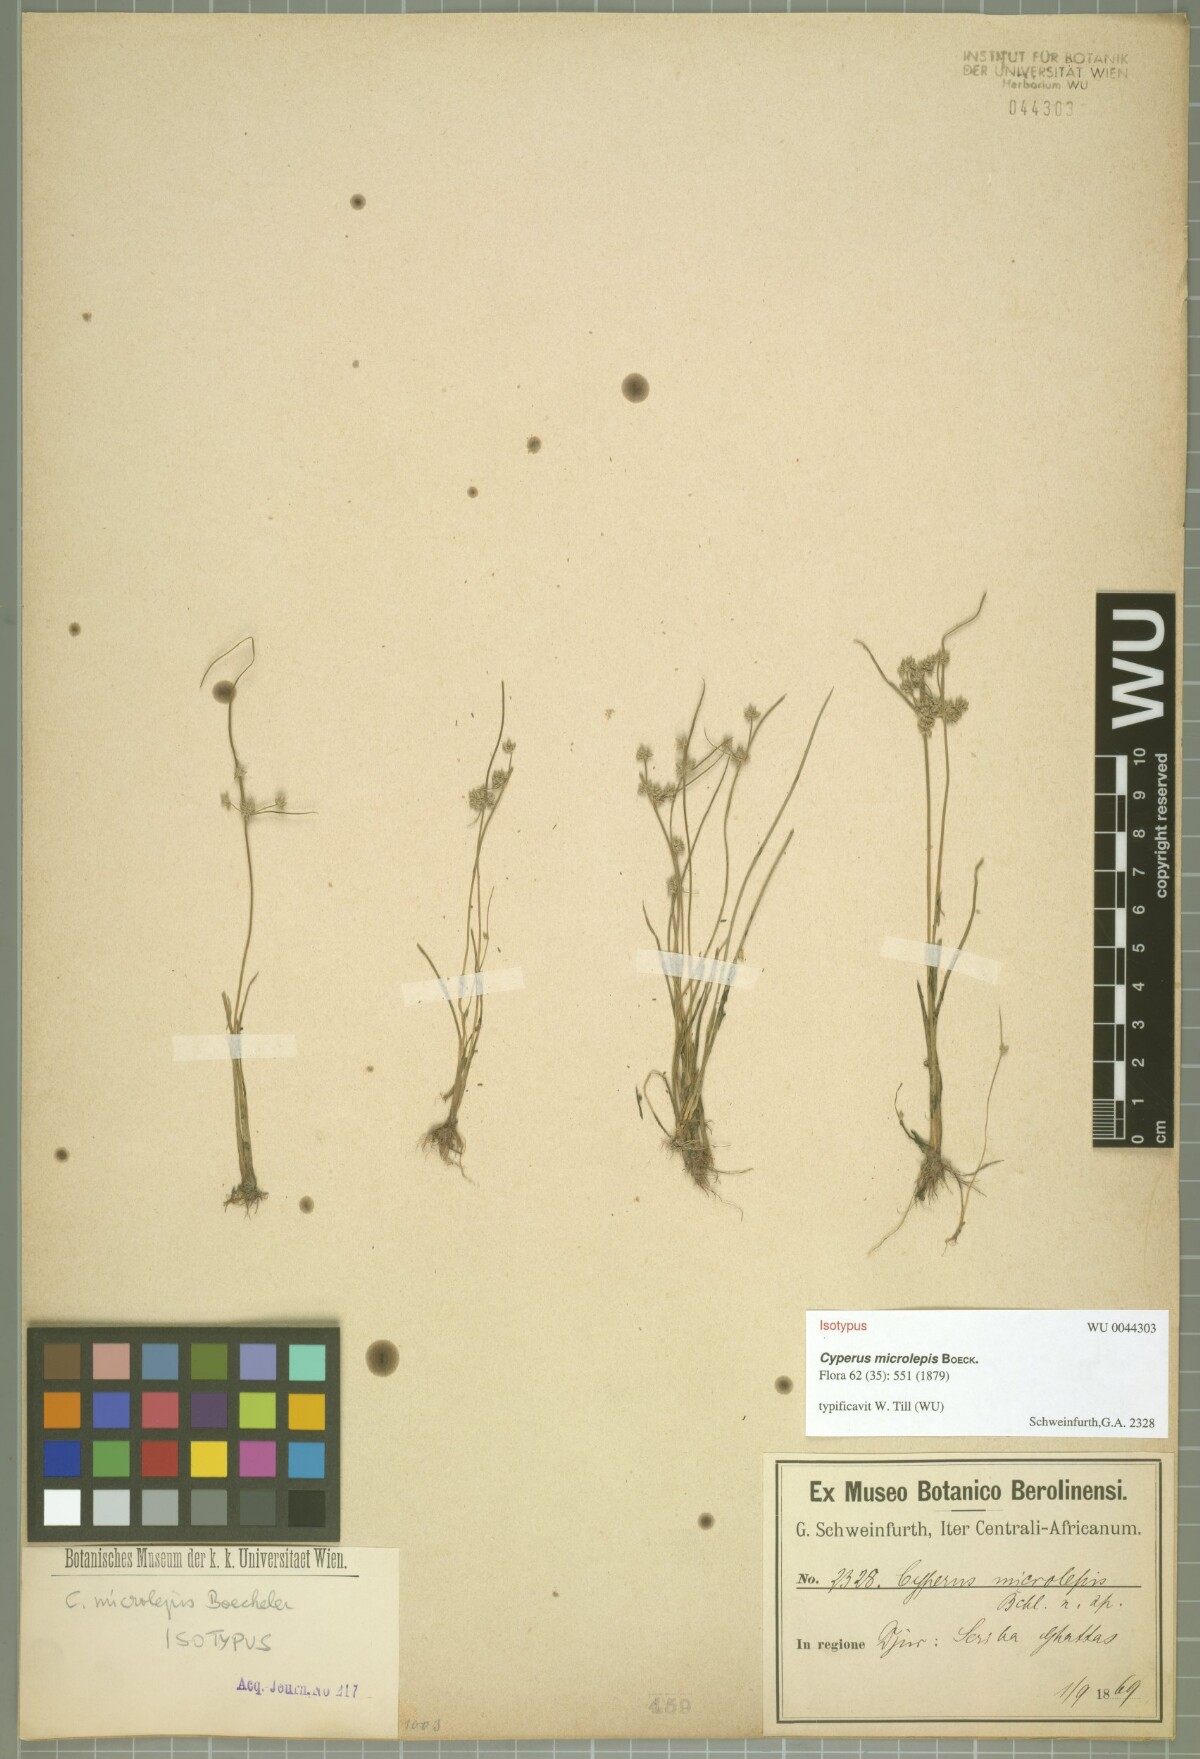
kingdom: Plantae
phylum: Tracheophyta
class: Liliopsida
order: Poales
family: Cyperaceae
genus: Cyperus
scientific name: Cyperus submicrolepis
